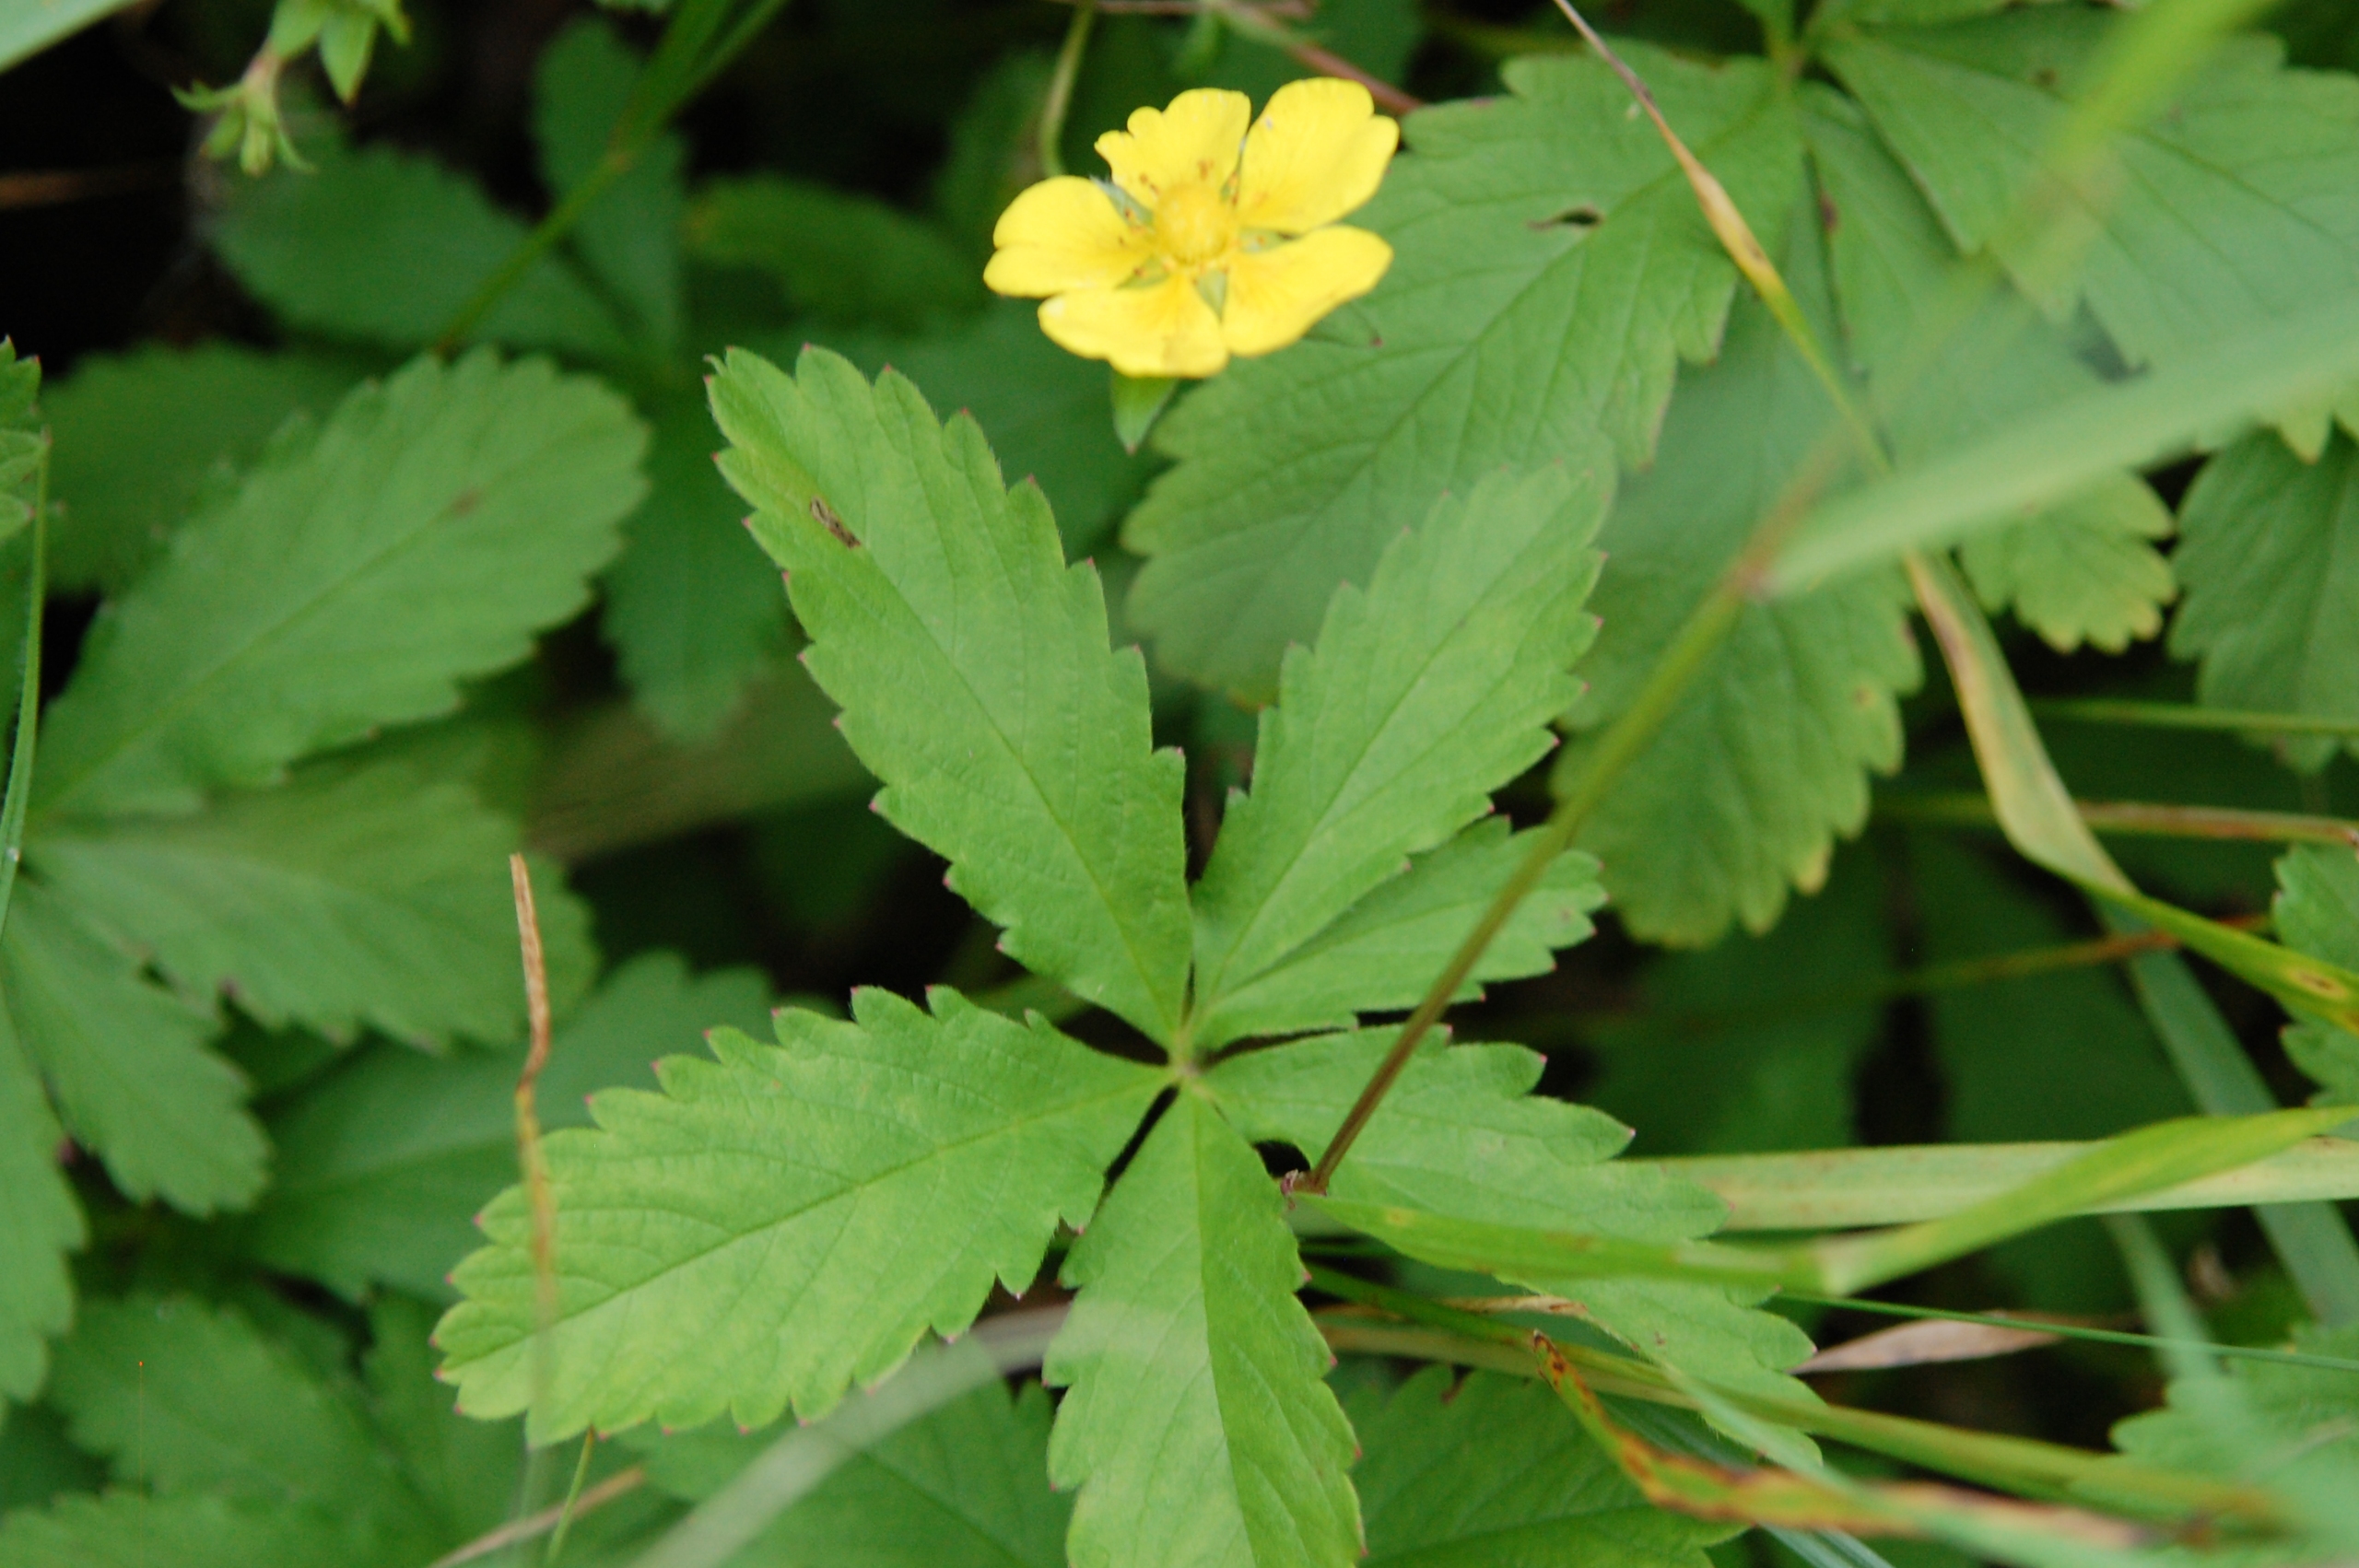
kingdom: Plantae
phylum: Tracheophyta
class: Magnoliopsida
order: Rosales
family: Rosaceae
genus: Potentilla
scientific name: Potentilla reptans
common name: Krybende potentil
